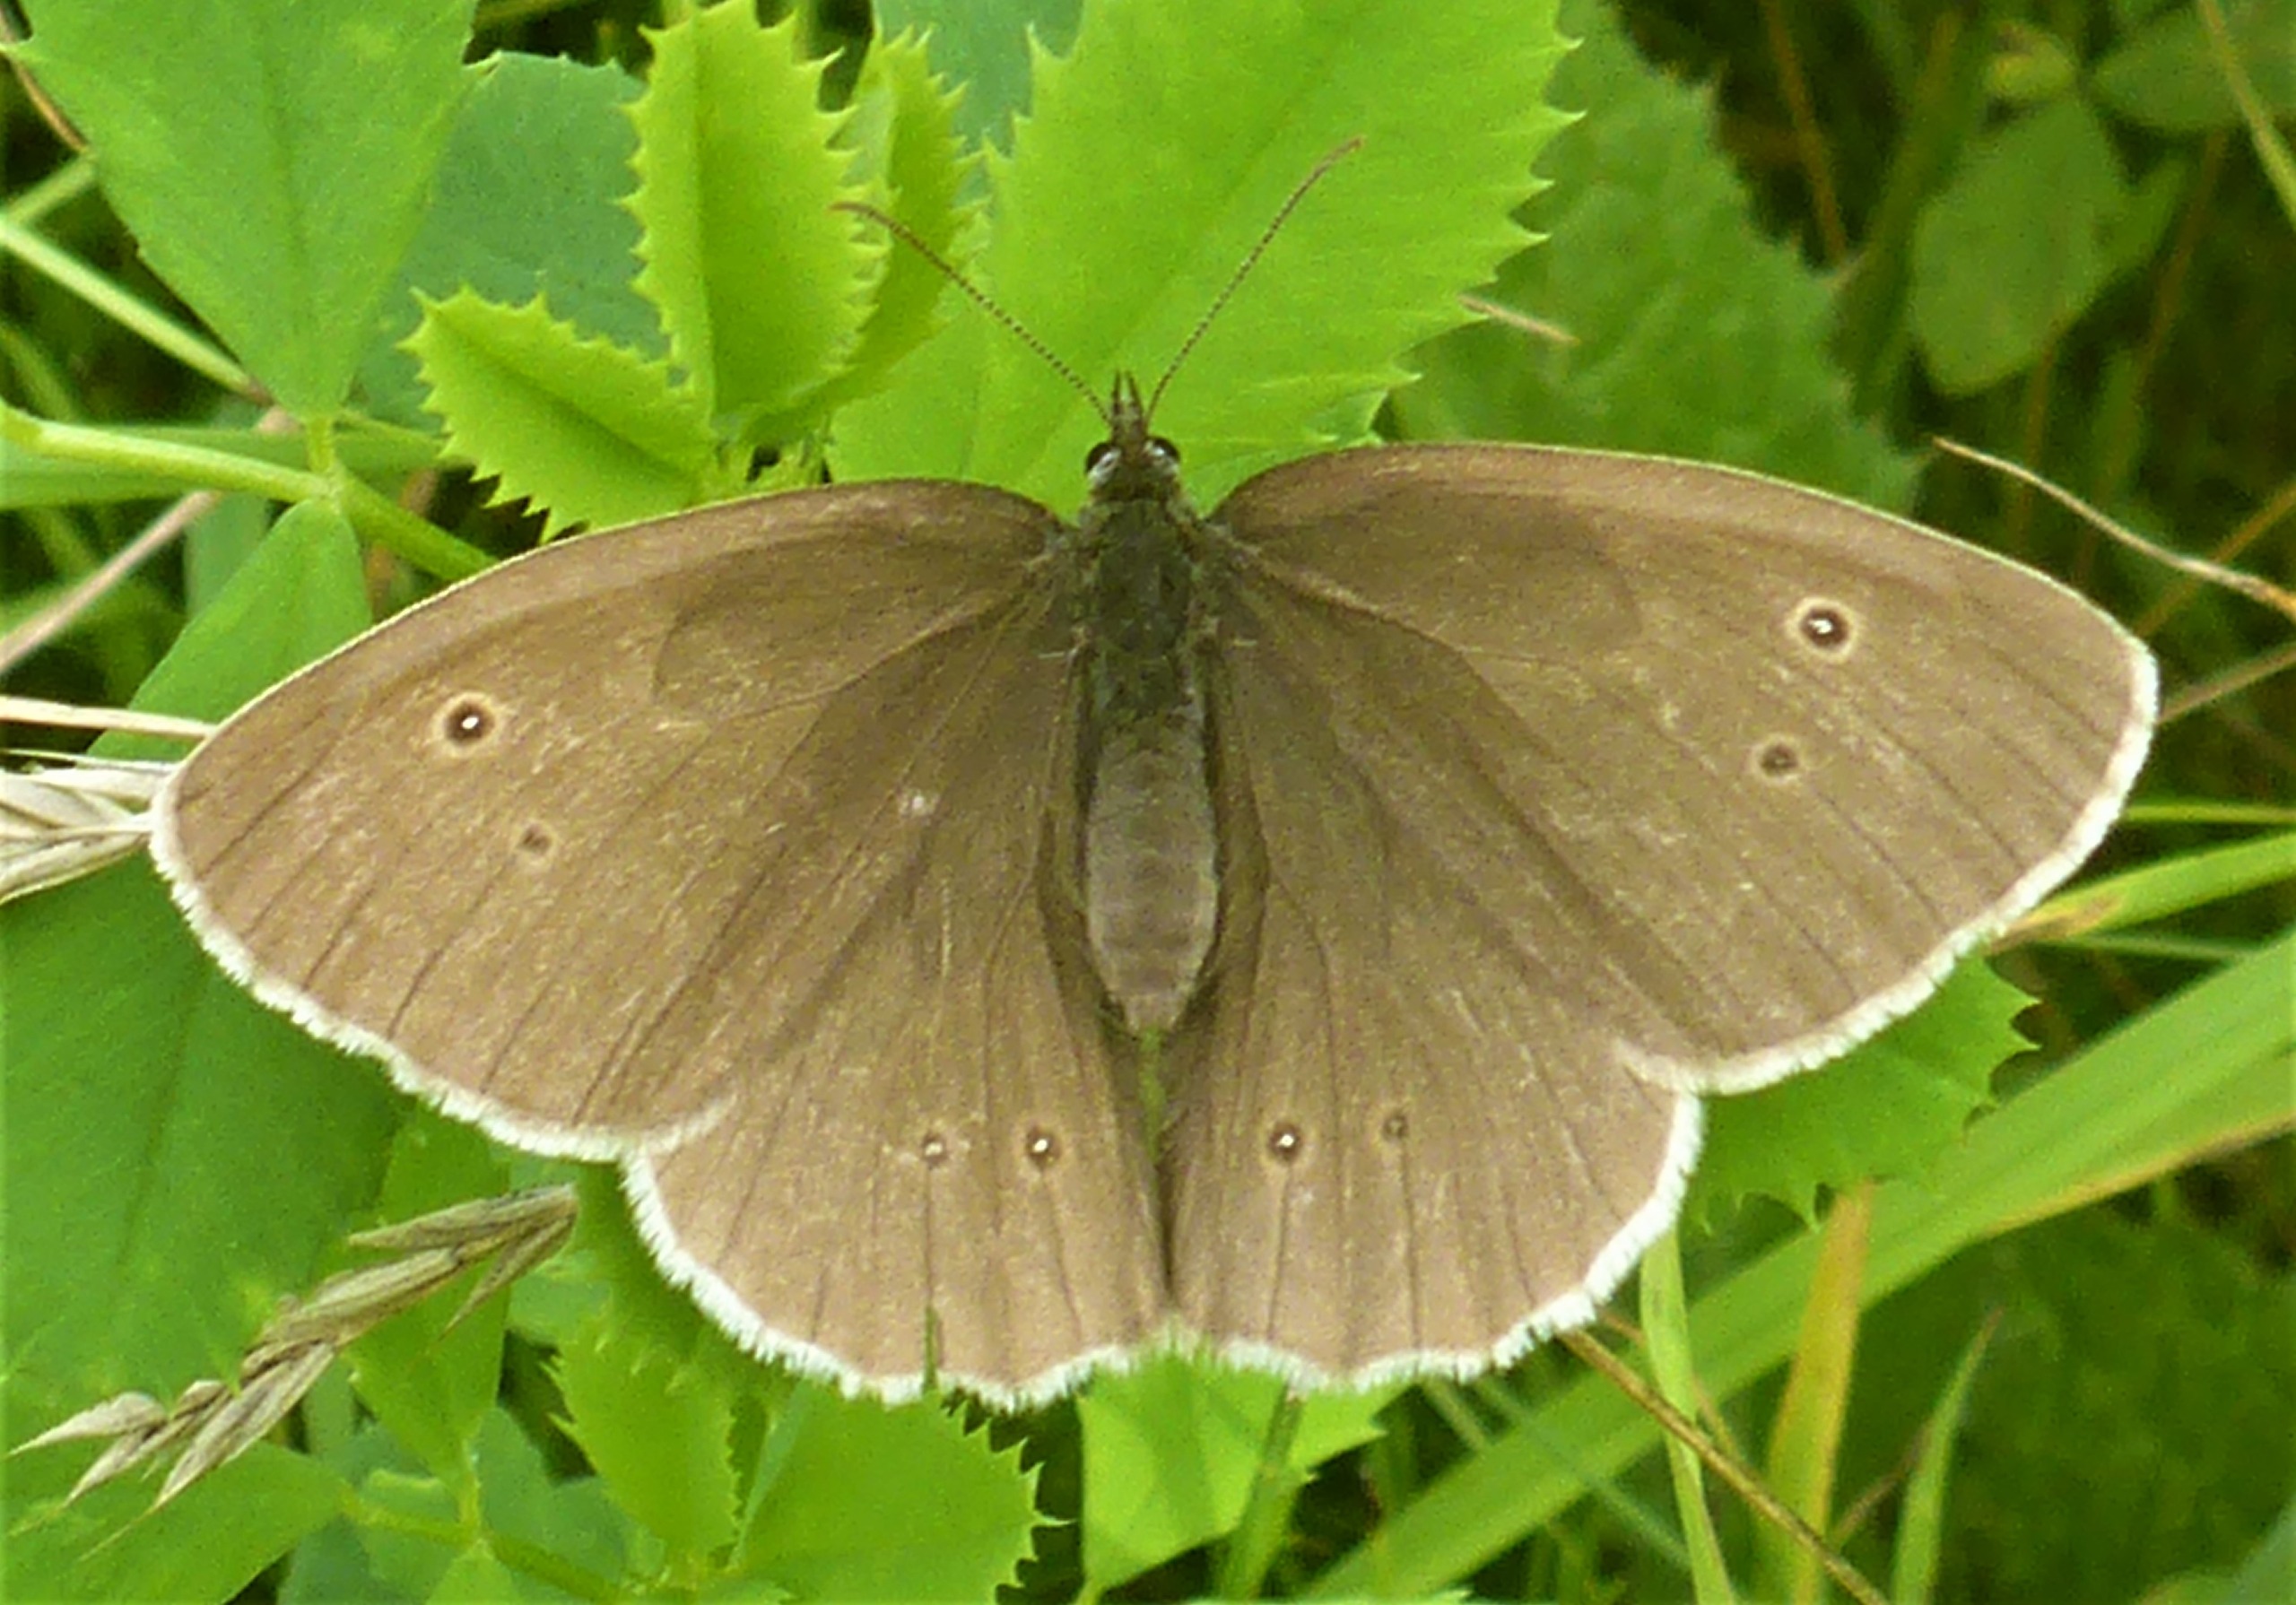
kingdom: Animalia
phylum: Arthropoda
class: Insecta
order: Lepidoptera
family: Nymphalidae
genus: Aphantopus
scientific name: Aphantopus hyperantus
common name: Engrandøje
